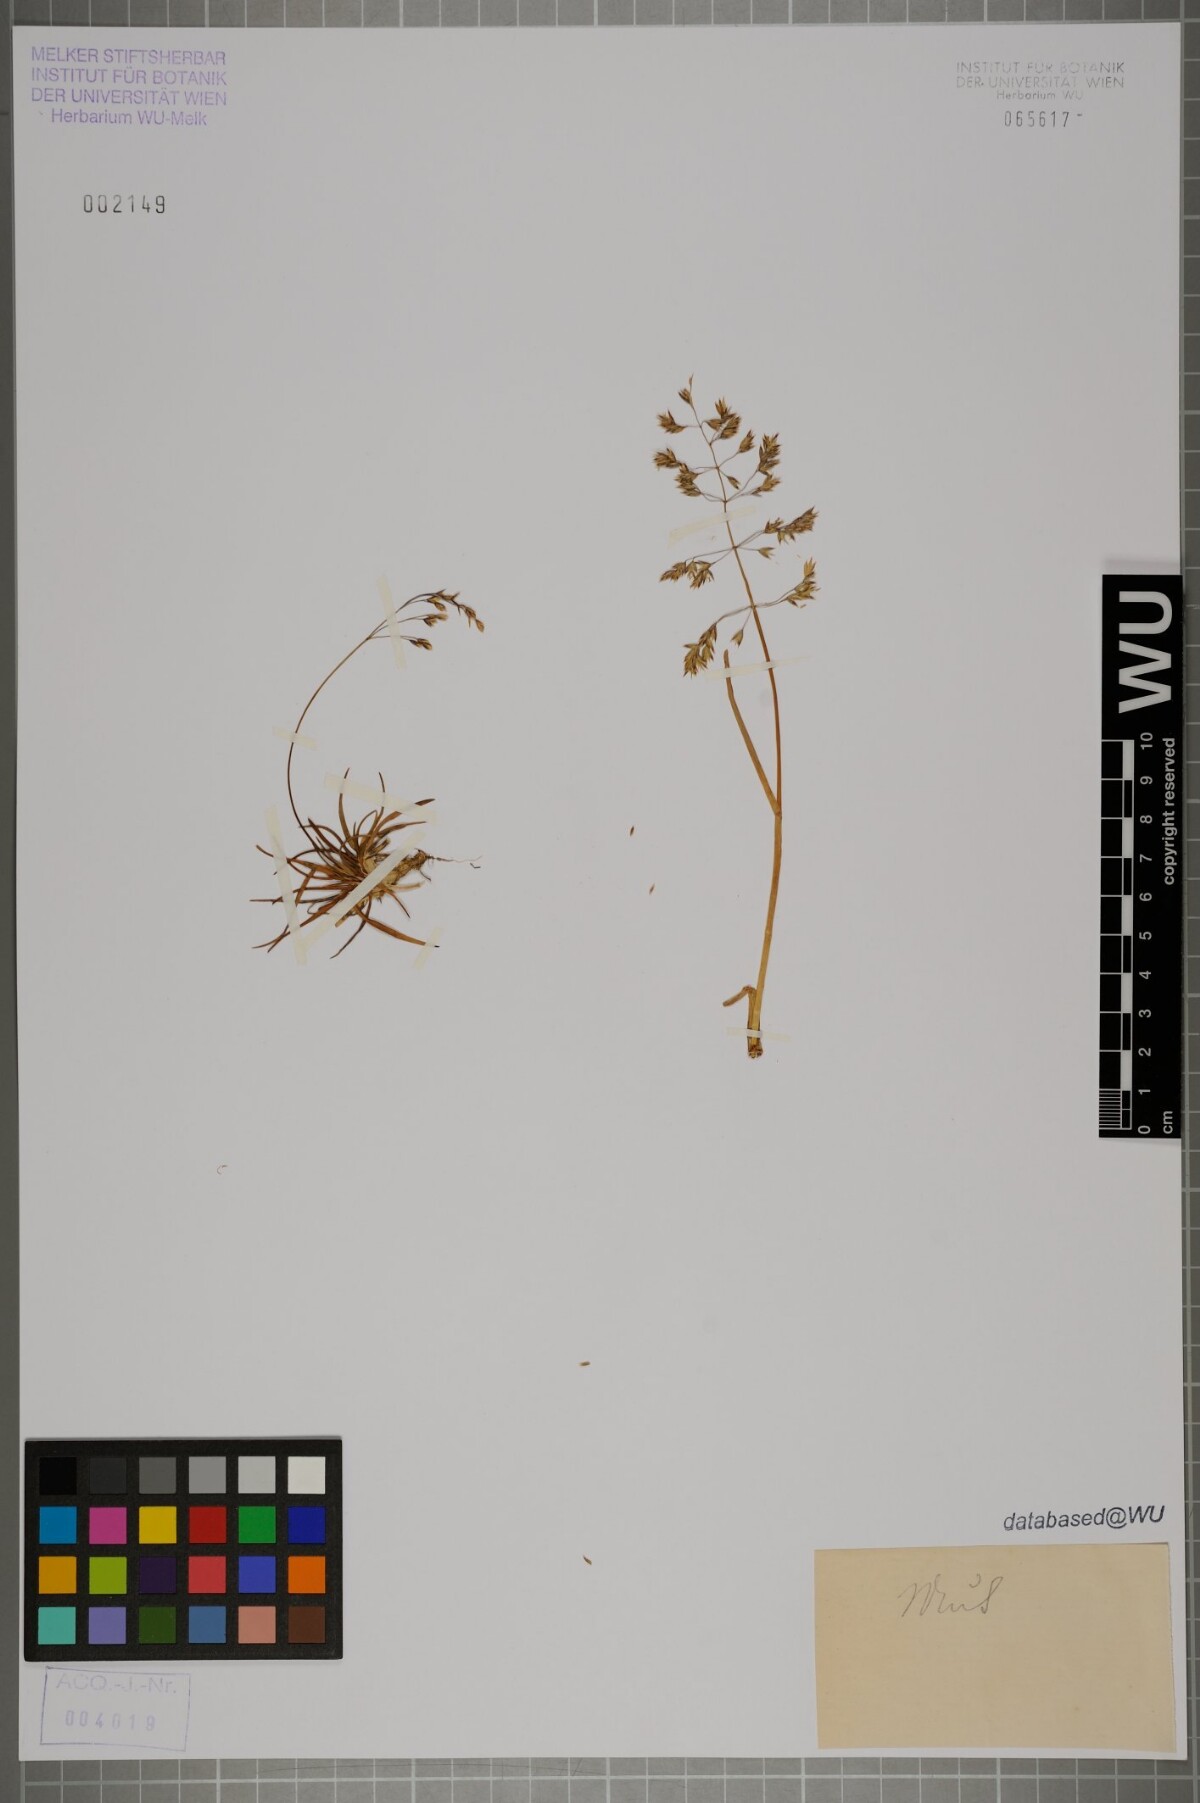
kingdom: Plantae
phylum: Tracheophyta
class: Liliopsida
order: Poales
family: Poaceae
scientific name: Poaceae
